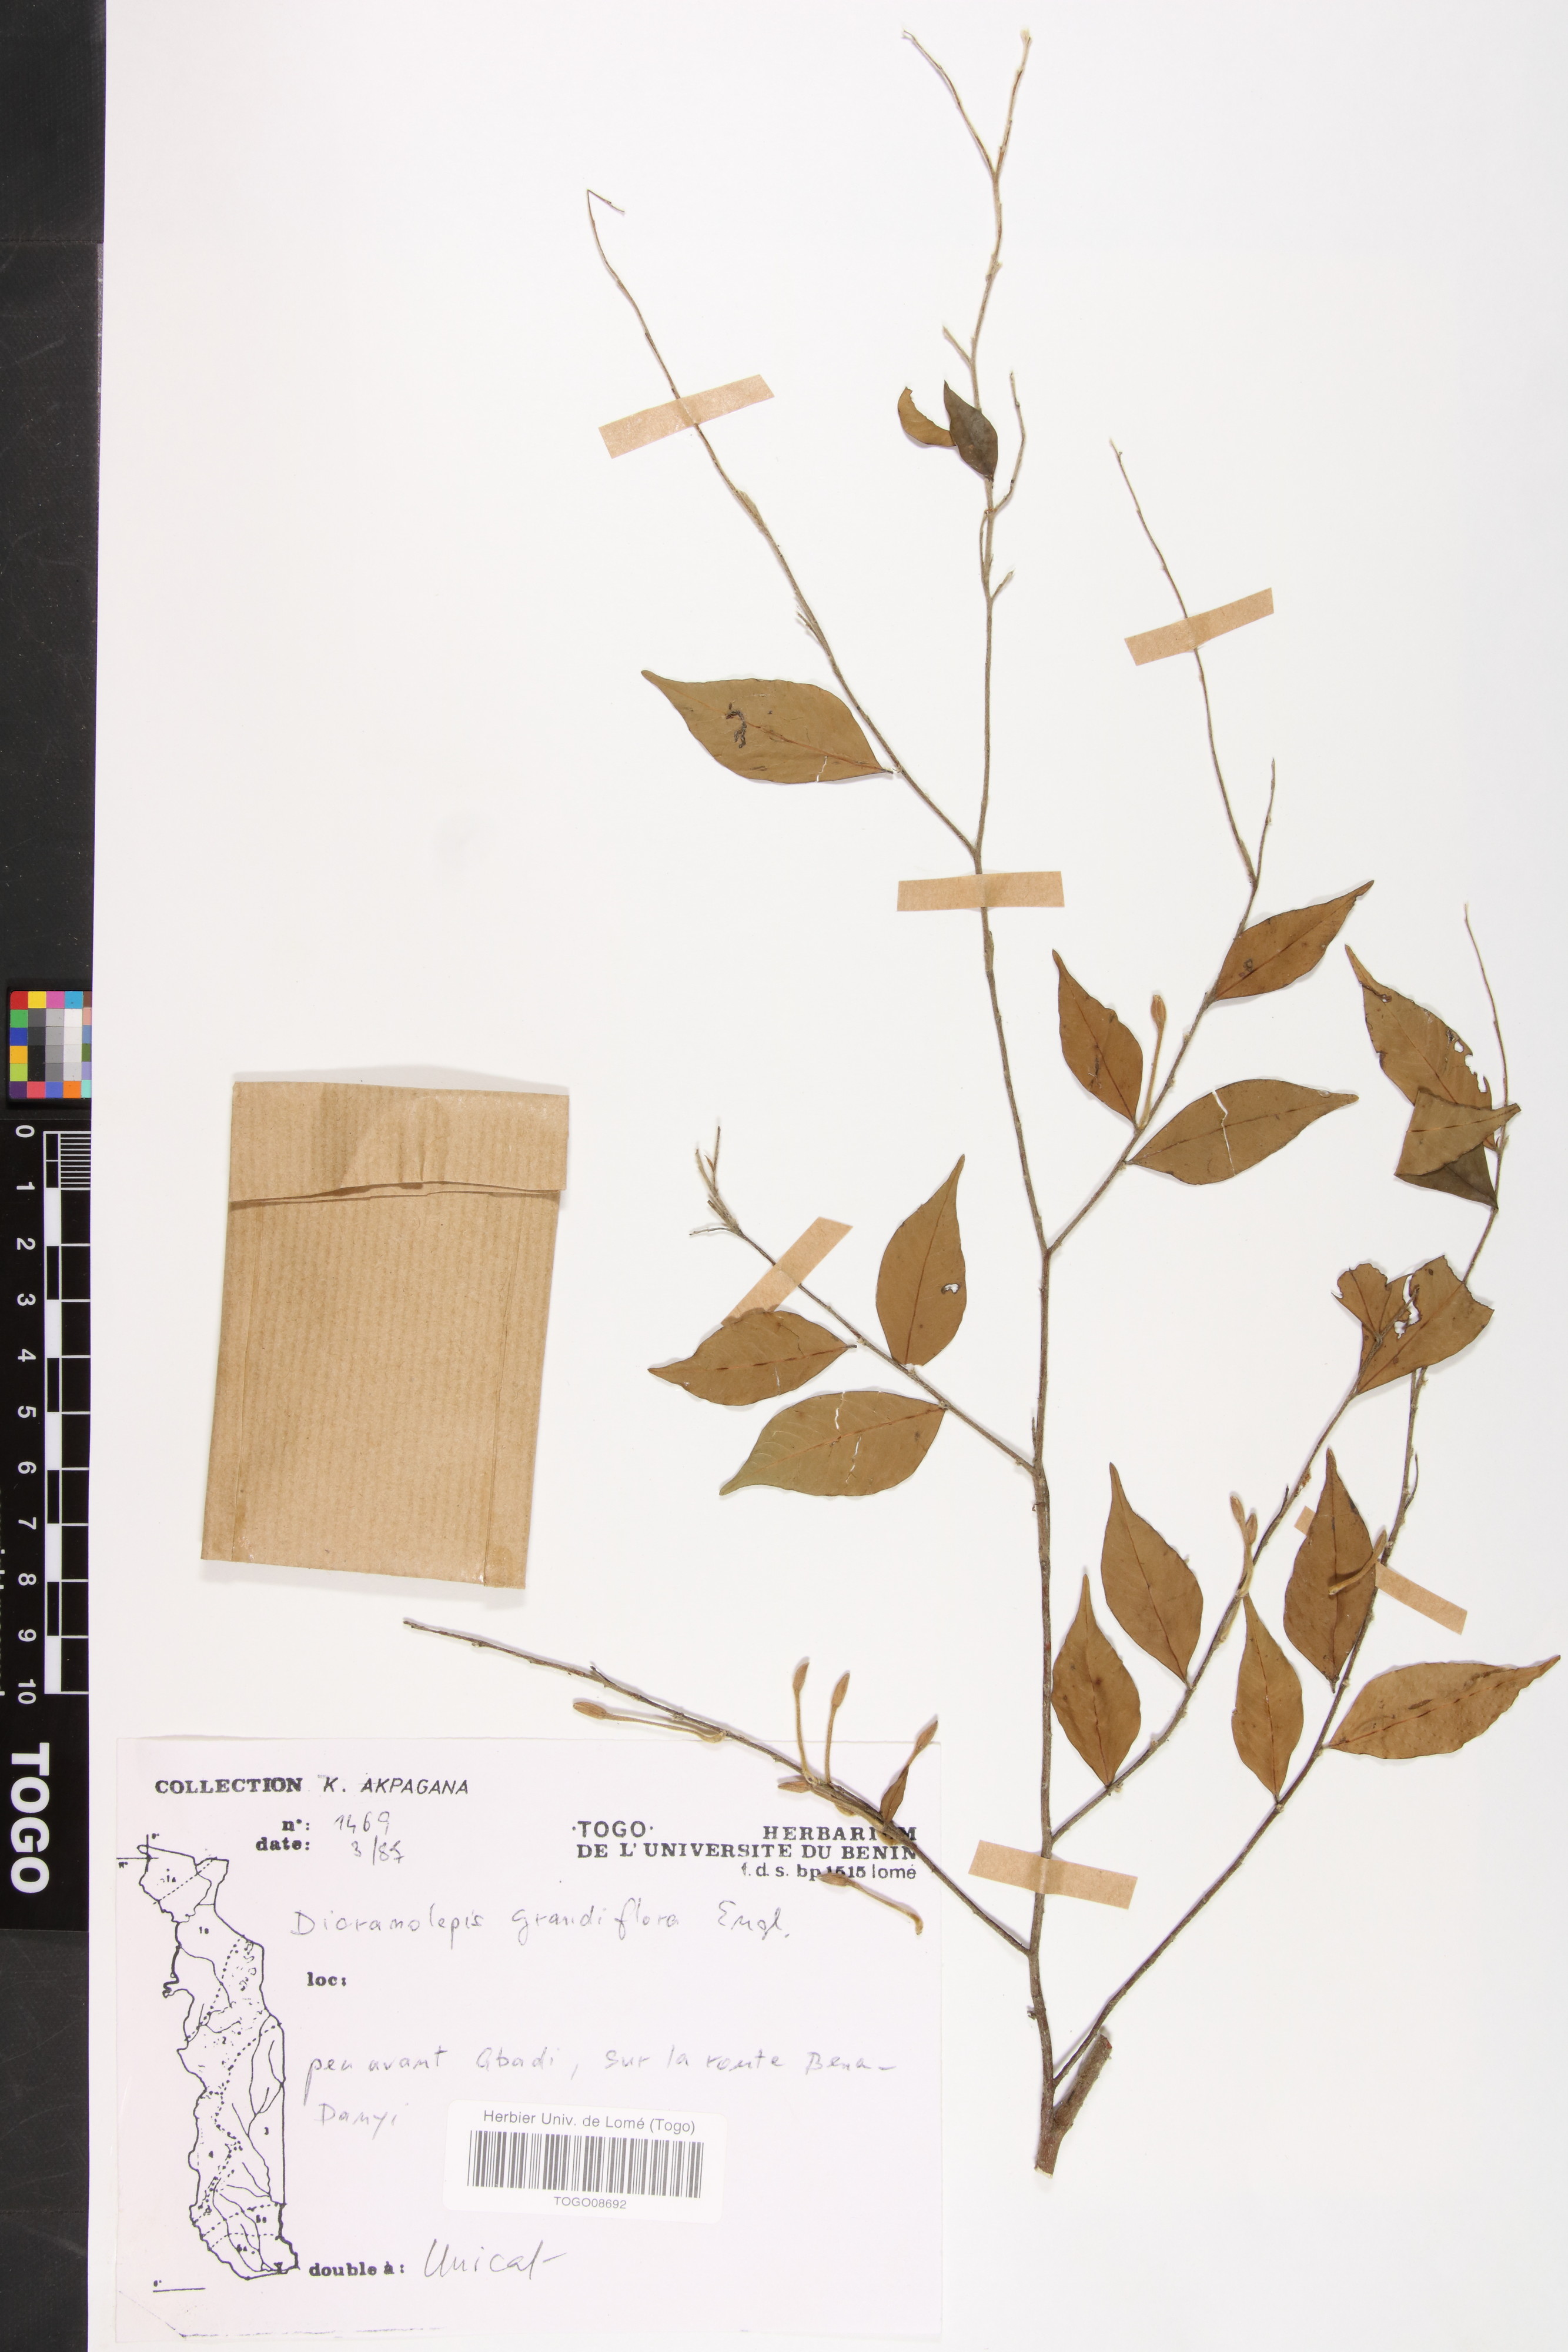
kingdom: Plantae
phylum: Tracheophyta
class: Magnoliopsida
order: Malvales
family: Thymelaeaceae
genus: Dicranolepis
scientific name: Dicranolepis grandiflora
